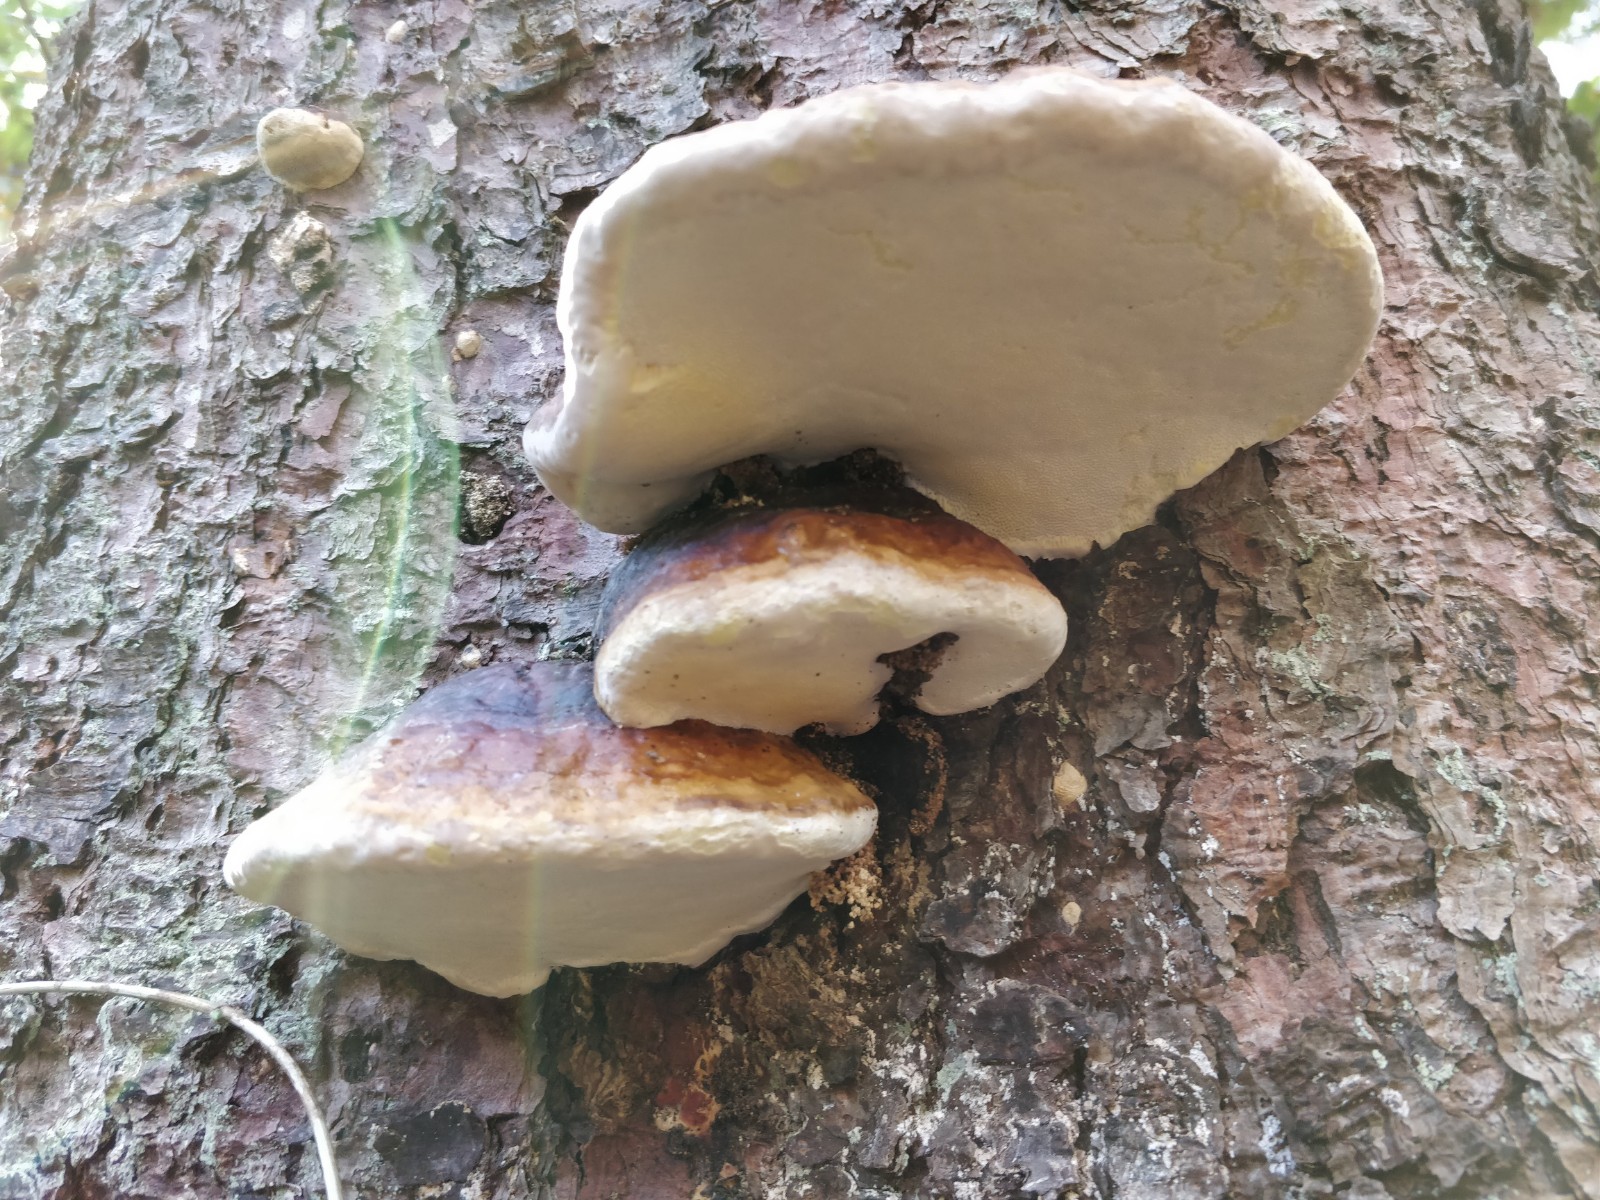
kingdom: Fungi
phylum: Basidiomycota
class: Agaricomycetes
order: Polyporales
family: Fomitopsidaceae
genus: Fomitopsis
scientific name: Fomitopsis pinicola
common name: randbæltet hovporesvamp
